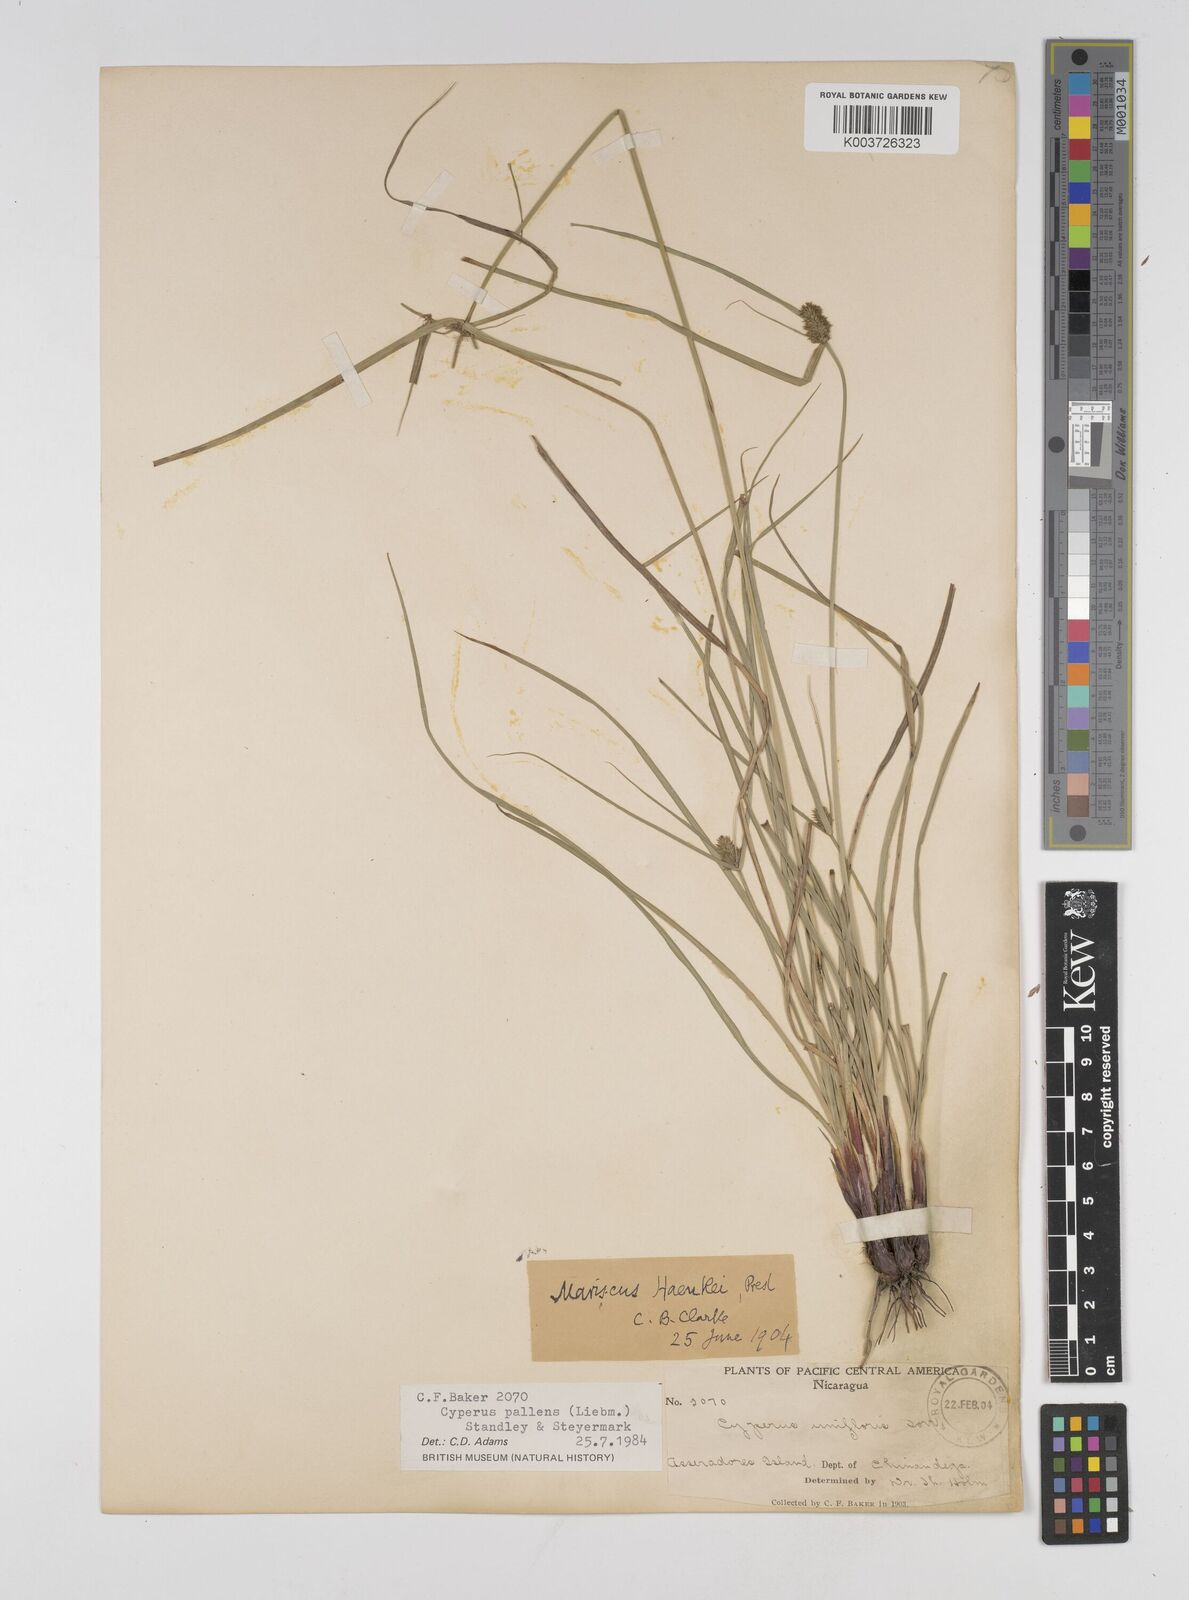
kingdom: Plantae
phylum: Tracheophyta
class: Liliopsida
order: Poales
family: Cyperaceae
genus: Cyperus
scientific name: Cyperus regiomontanus
